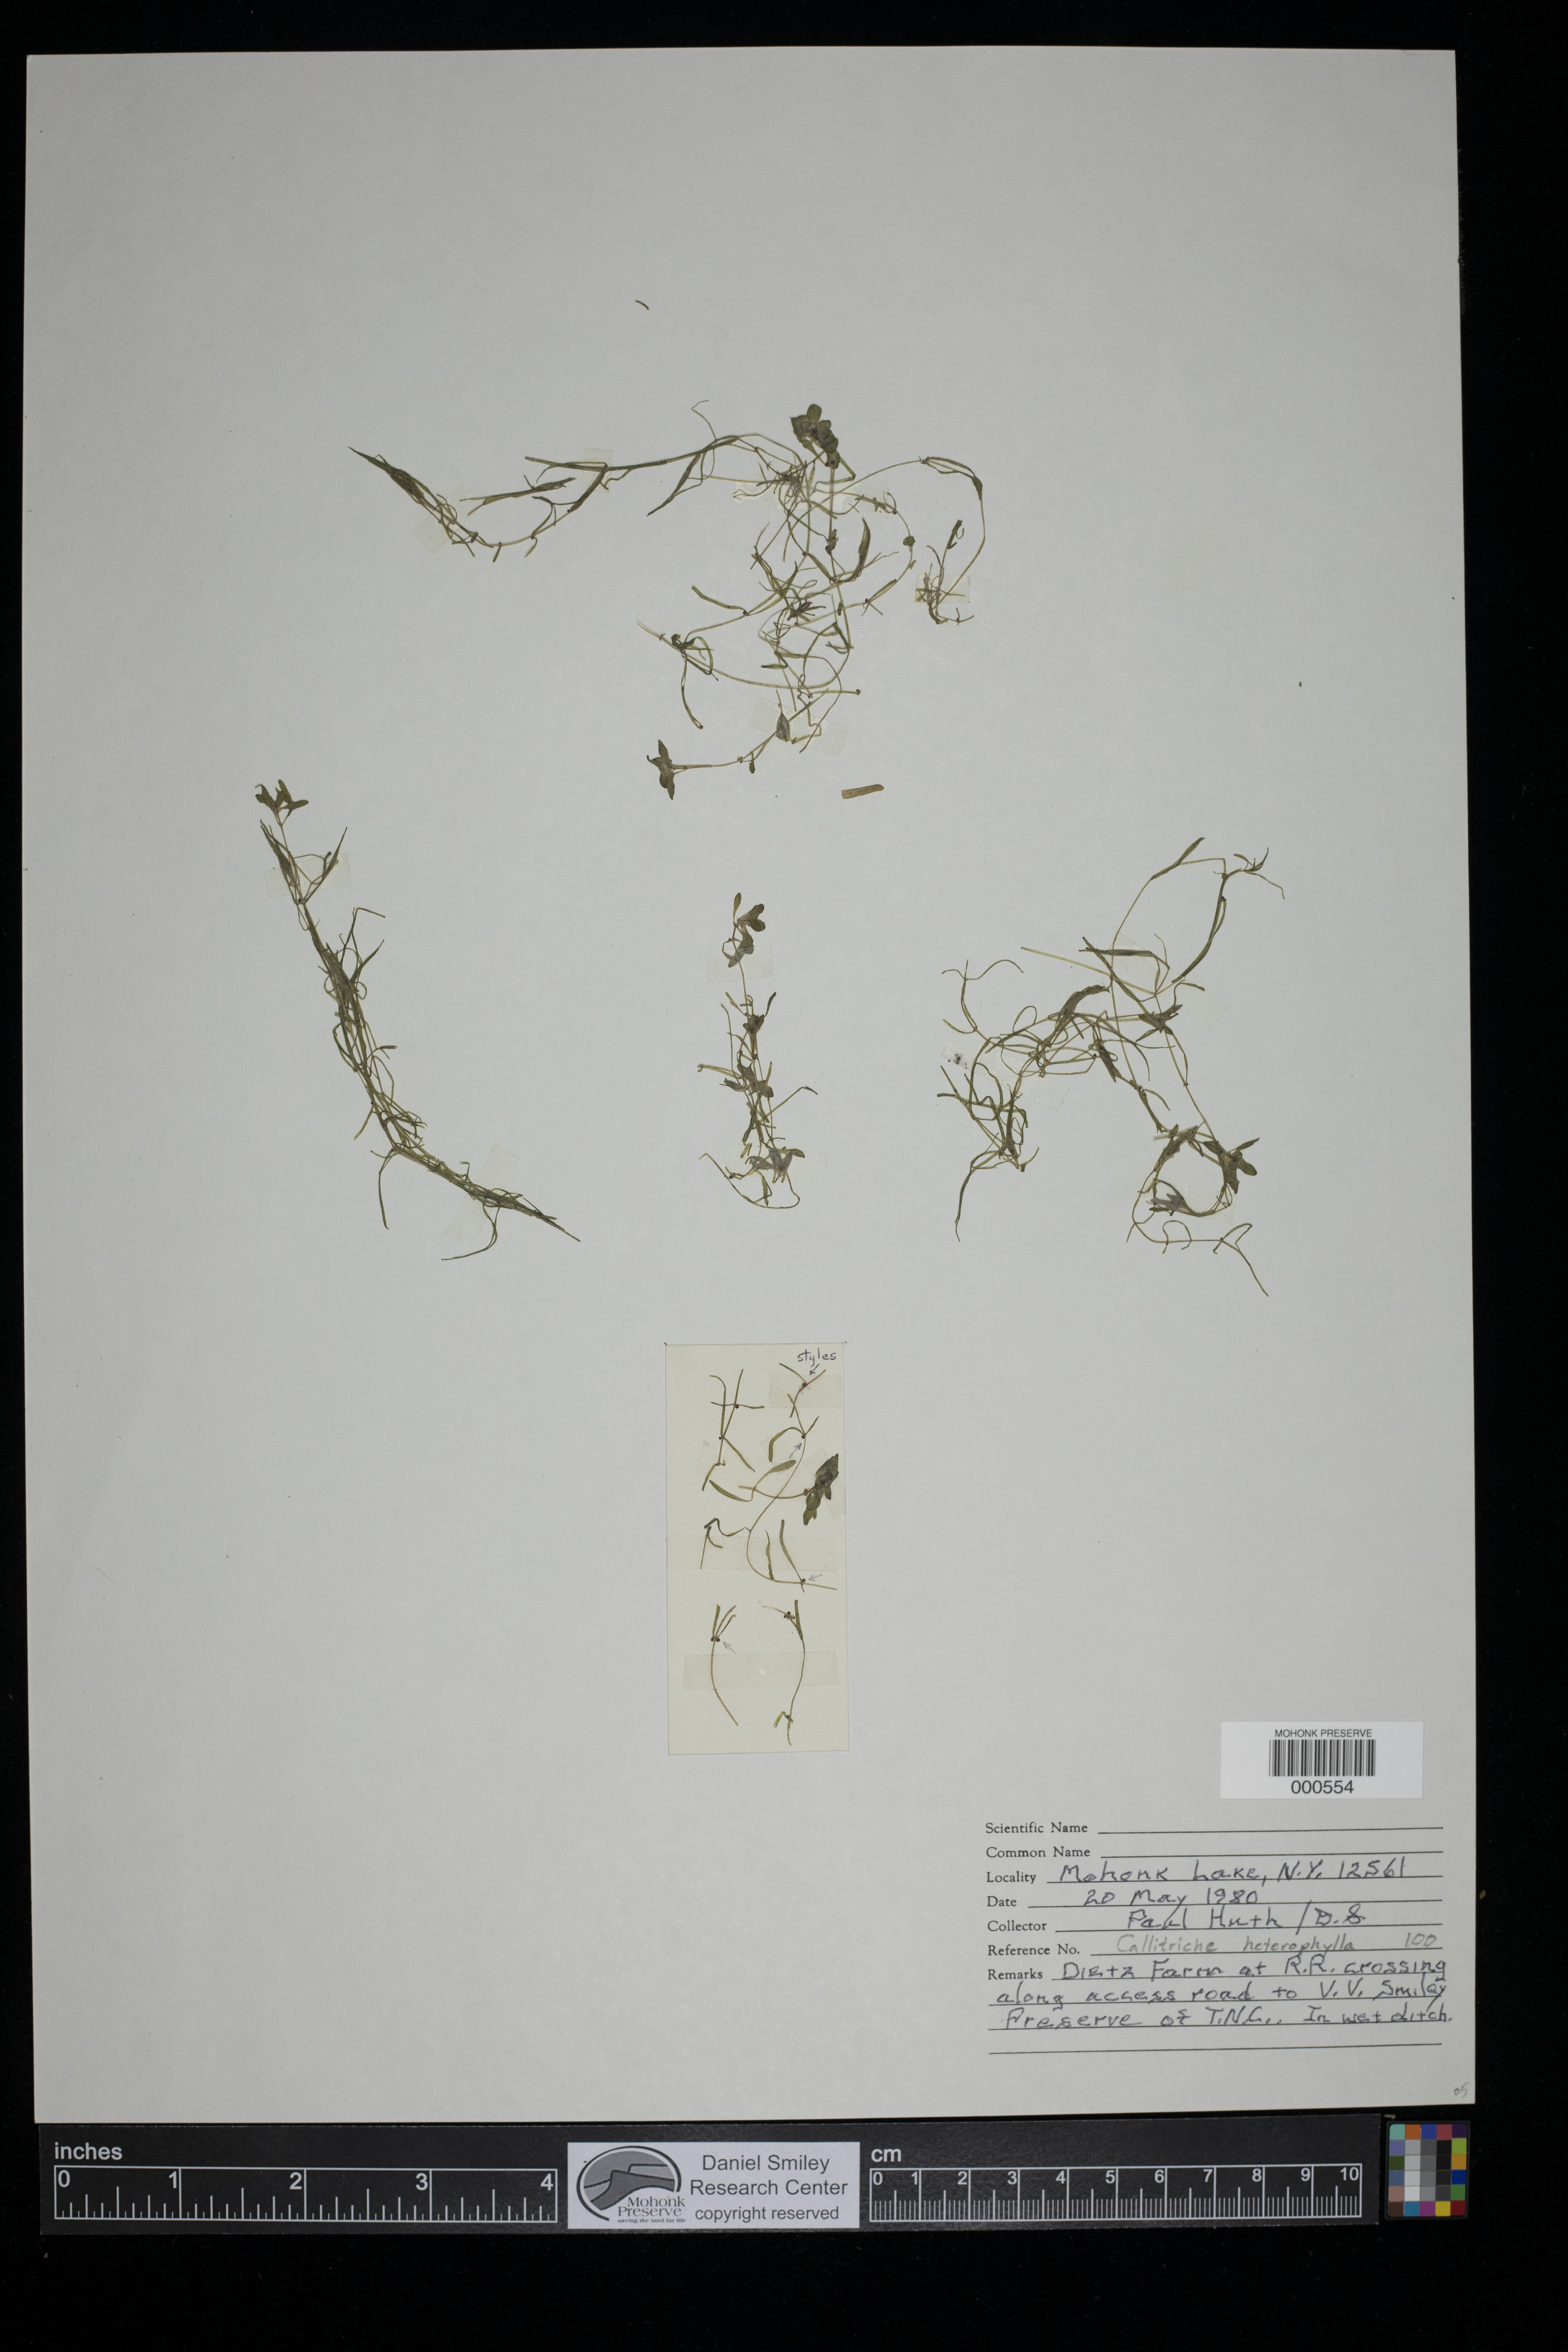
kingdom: Plantae
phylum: Tracheophyta
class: Magnoliopsida
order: Lamiales
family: Plantaginaceae
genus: Callitriche
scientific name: Callitriche heterophylla
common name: Two-headed water-starwort
